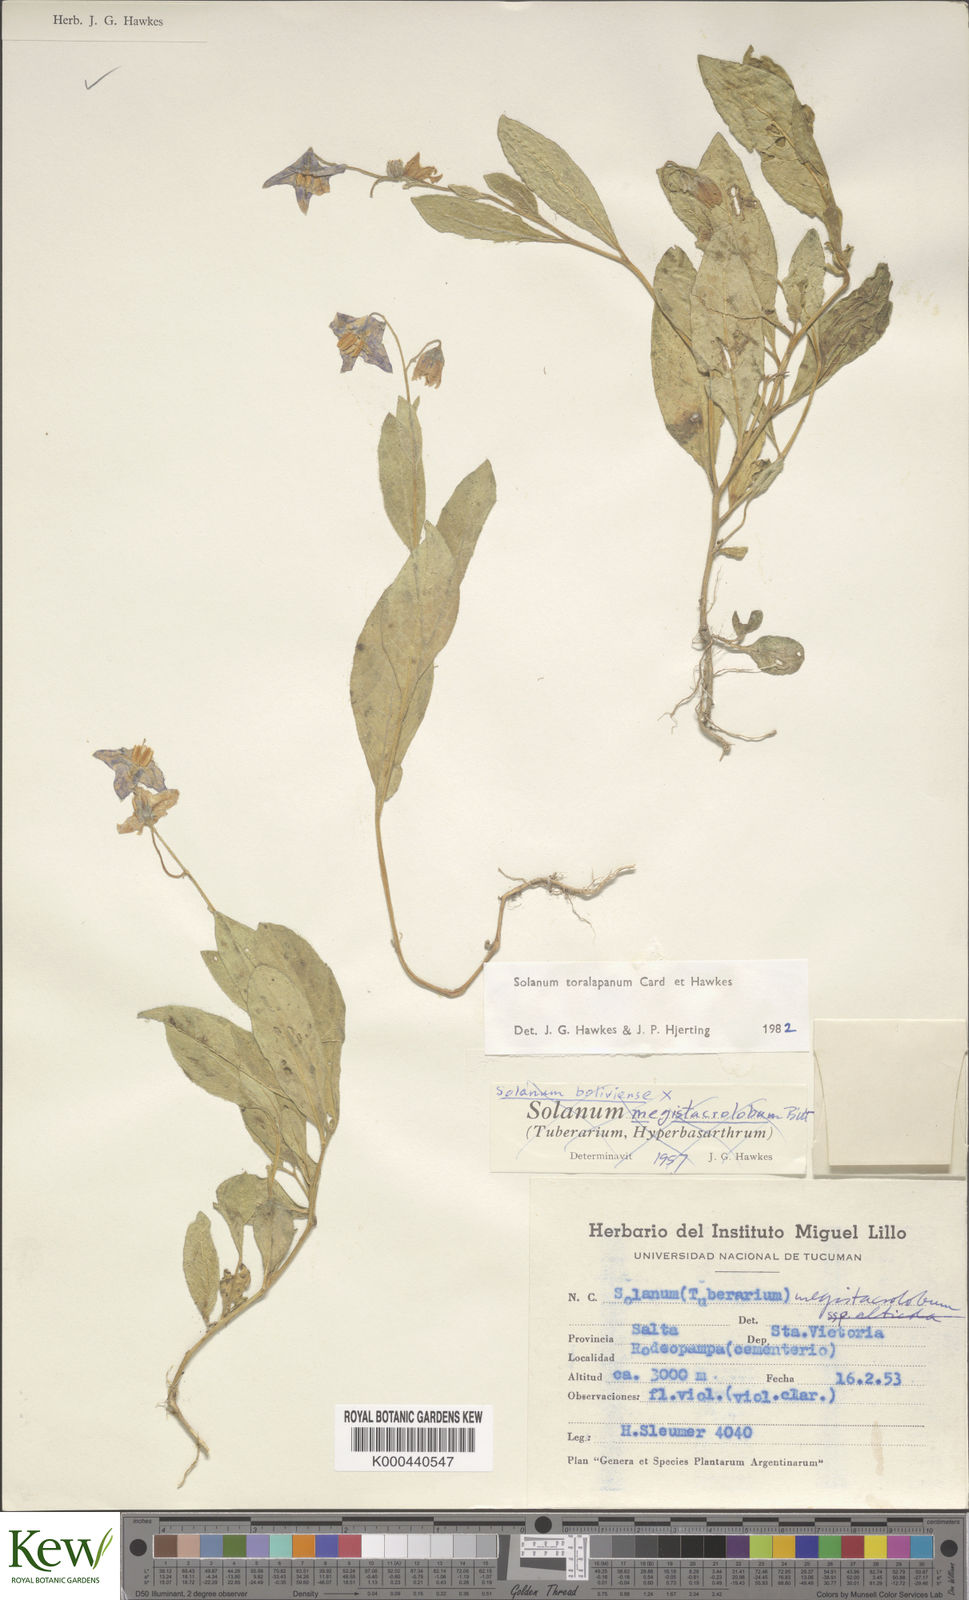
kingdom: Plantae
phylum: Tracheophyta
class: Magnoliopsida
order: Solanales
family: Solanaceae
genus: Solanum
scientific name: Solanum
